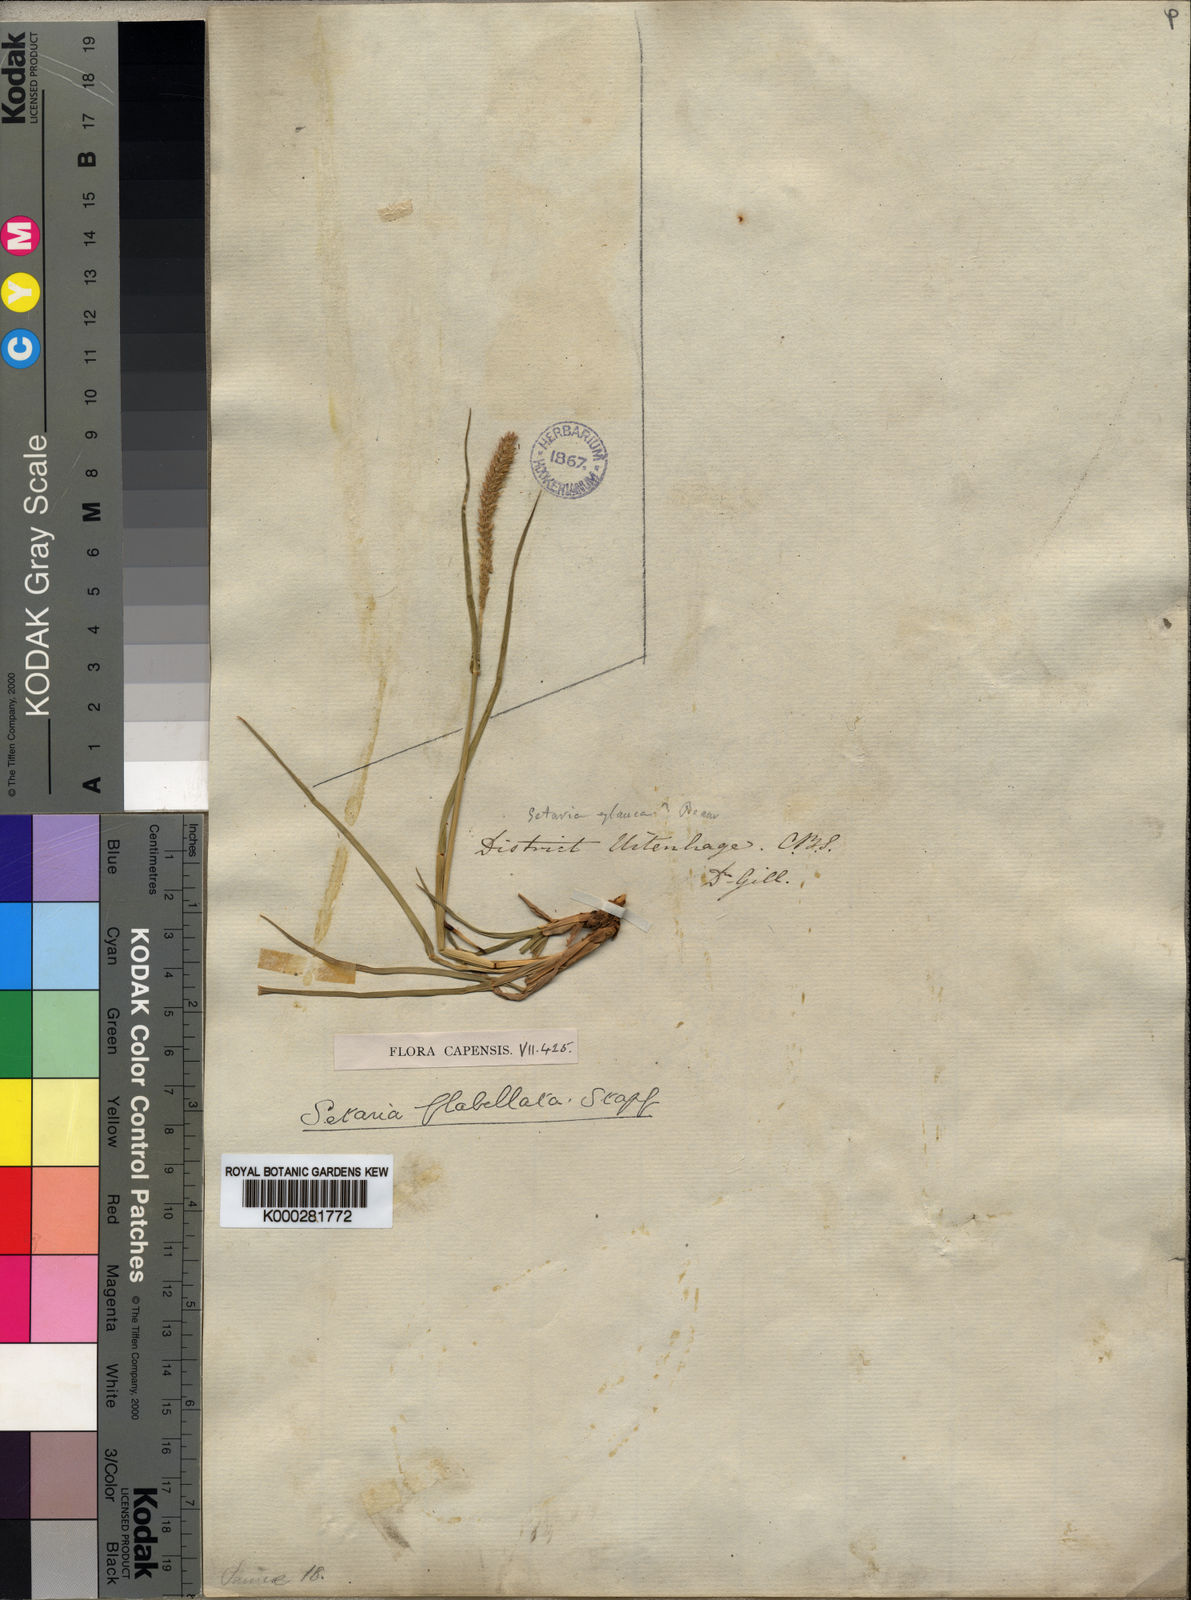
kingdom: Plantae
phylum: Tracheophyta
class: Liliopsida
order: Poales
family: Poaceae
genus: Setaria
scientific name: Setaria sphacelata
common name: African bristlegrass
